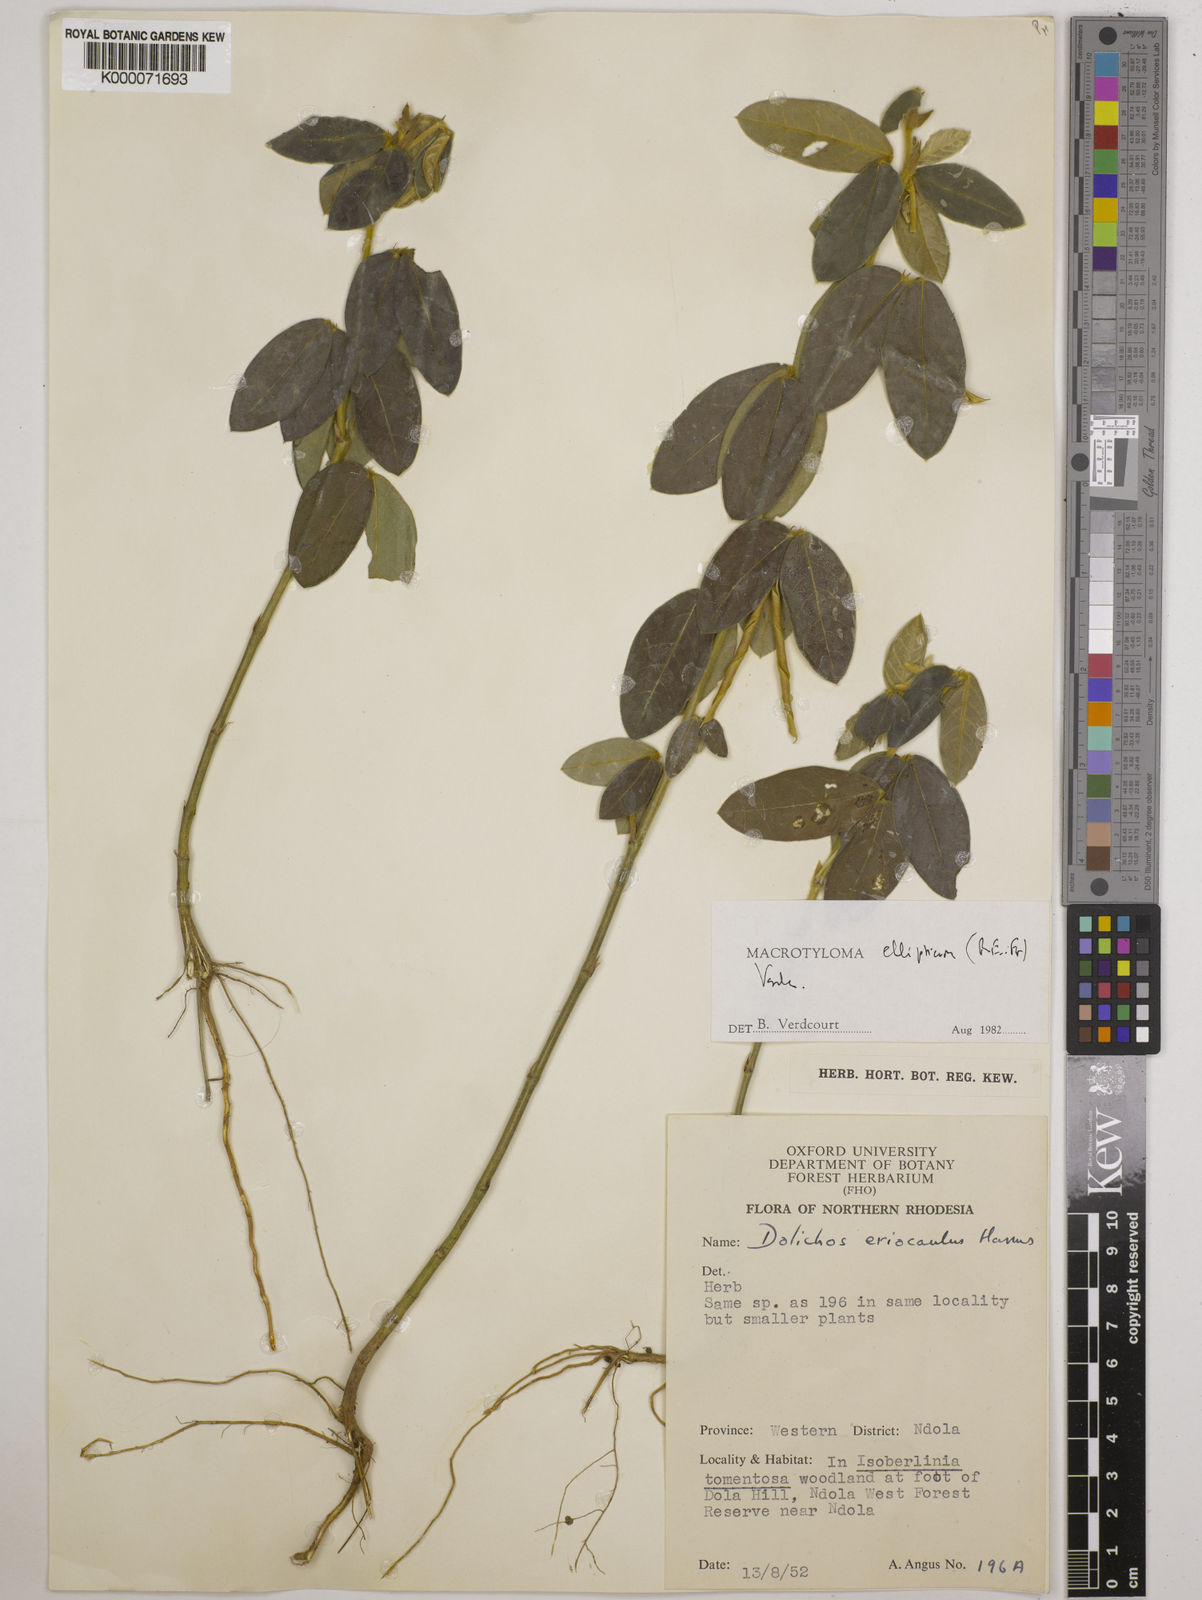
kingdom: Plantae
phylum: Tracheophyta
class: Magnoliopsida
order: Fabales
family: Fabaceae
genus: Macrotyloma
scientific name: Macrotyloma ellipticum
